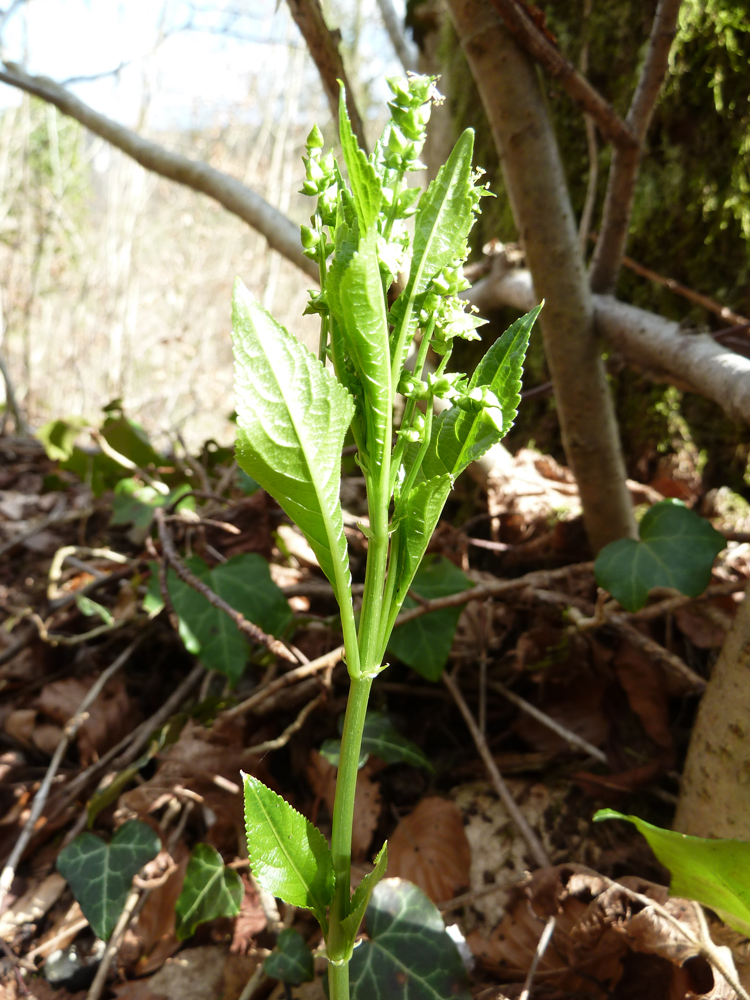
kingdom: Plantae
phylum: Tracheophyta
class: Magnoliopsida
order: Malpighiales
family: Euphorbiaceae
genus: Mercurialis
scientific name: Mercurialis perennis
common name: Dog mercury
